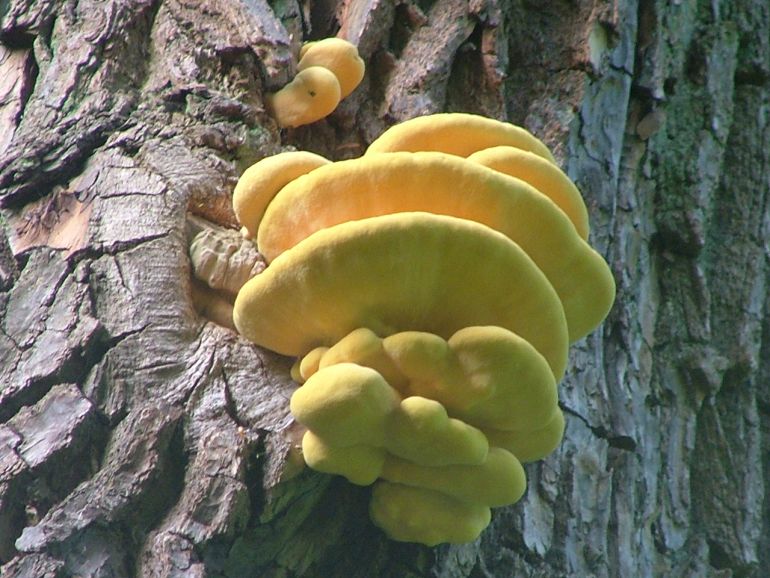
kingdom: Fungi
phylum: Basidiomycota
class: Agaricomycetes
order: Polyporales
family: Laetiporaceae
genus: Laetiporus
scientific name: Laetiporus sulphureus
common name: svovlporesvamp
